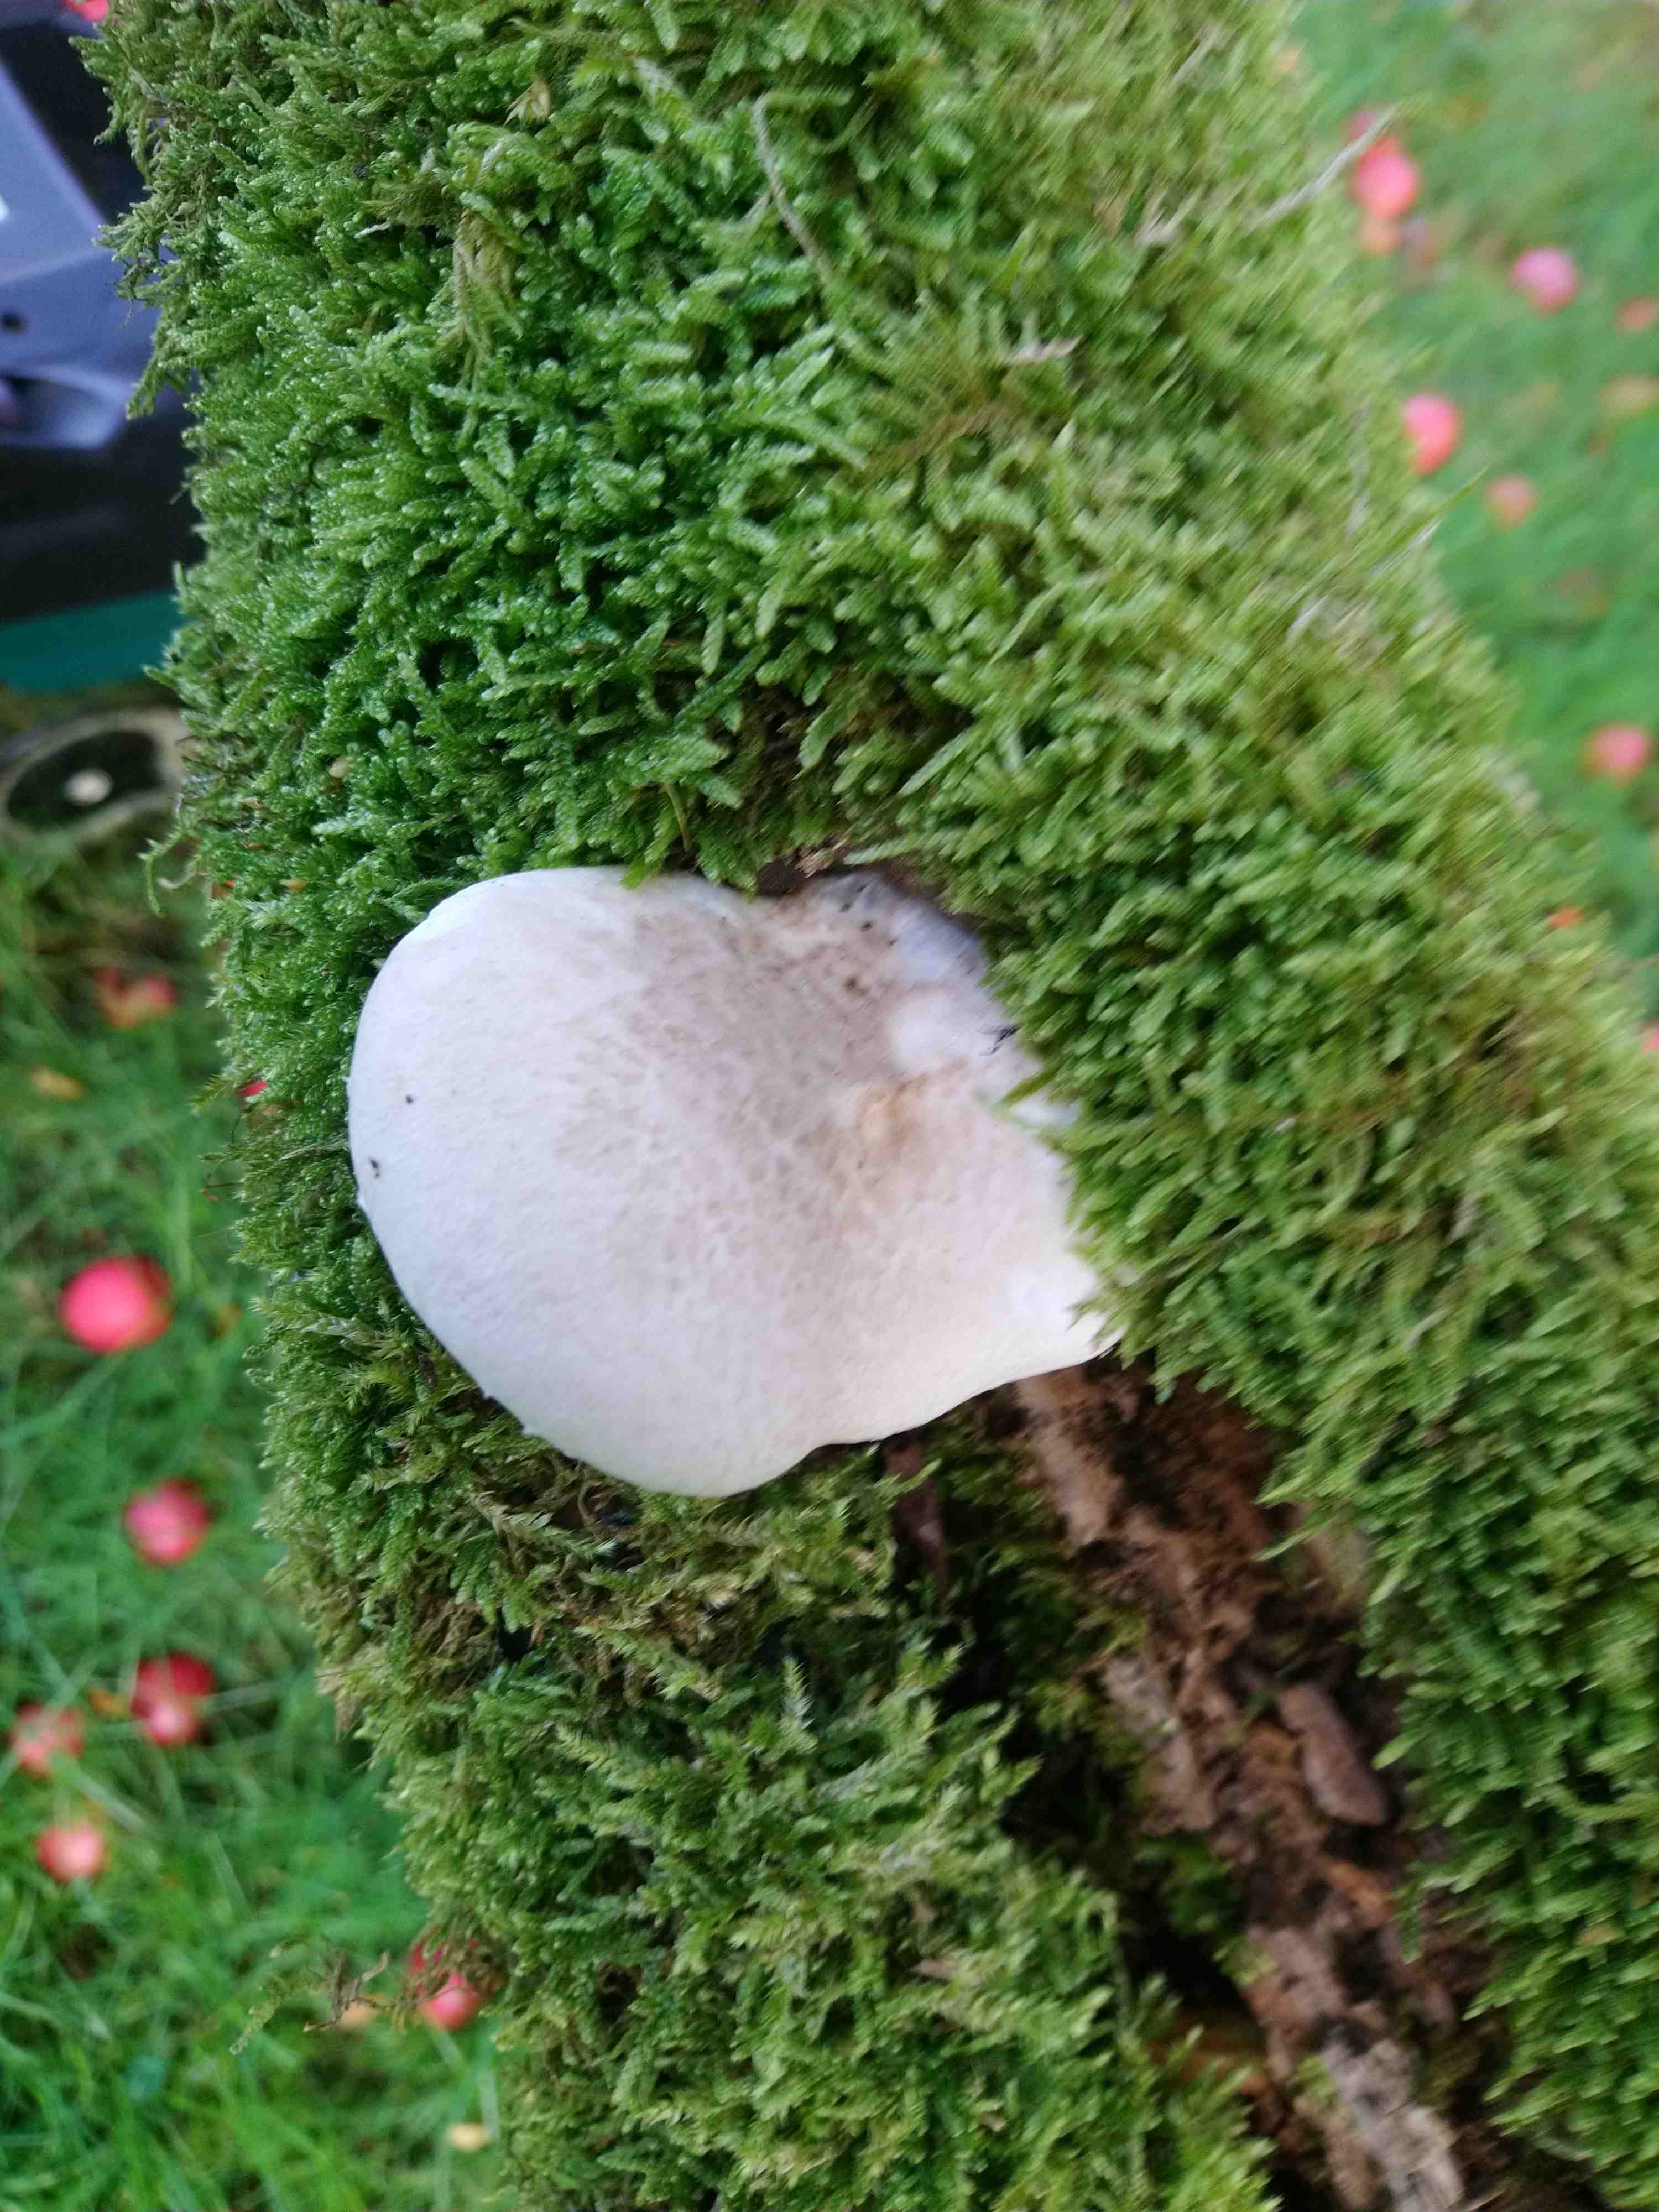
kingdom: Fungi
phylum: Basidiomycota
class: Agaricomycetes
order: Agaricales
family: Pleurotaceae
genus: Pleurotus
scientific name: Pleurotus dryinus
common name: korkagtig østershat
